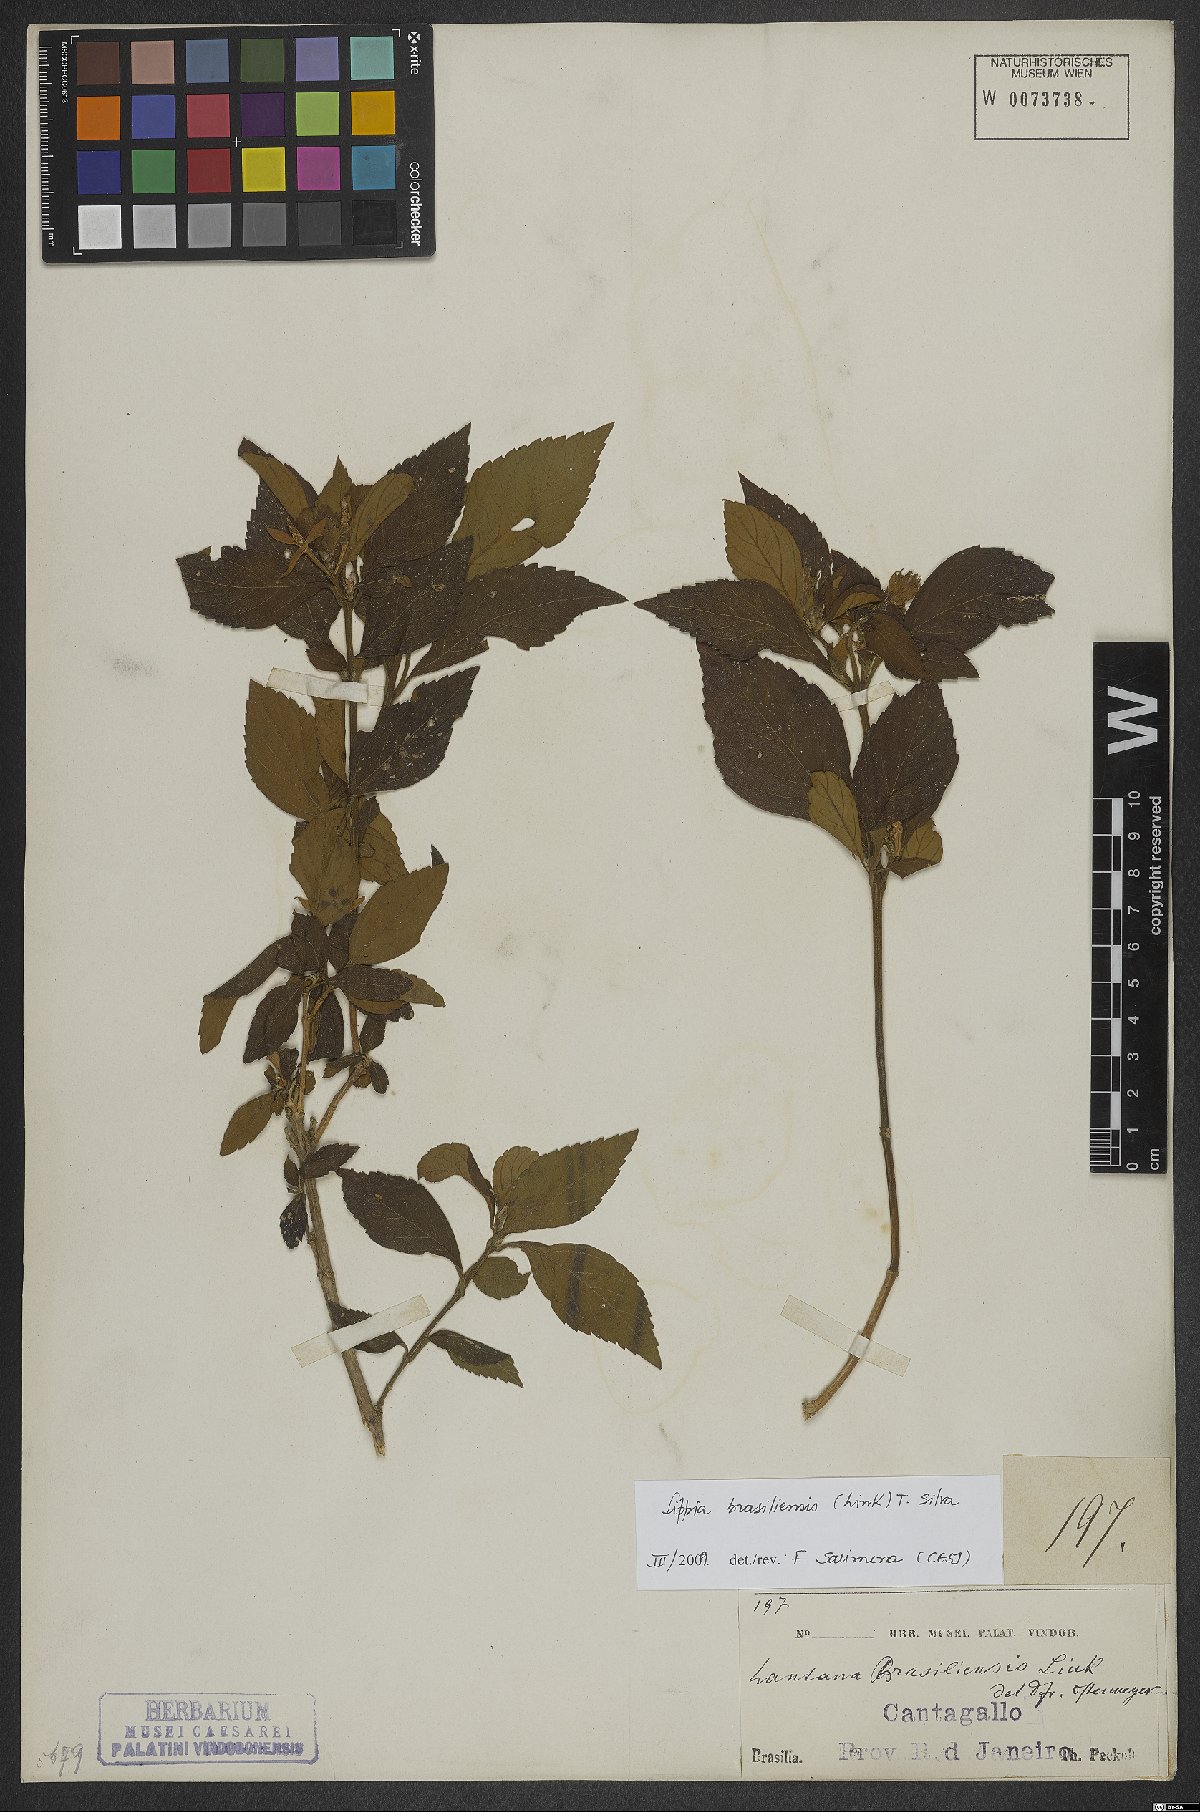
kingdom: Plantae
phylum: Tracheophyta
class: Magnoliopsida
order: Lamiales
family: Verbenaceae
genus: Lippia
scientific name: Lippia brasiliensis
